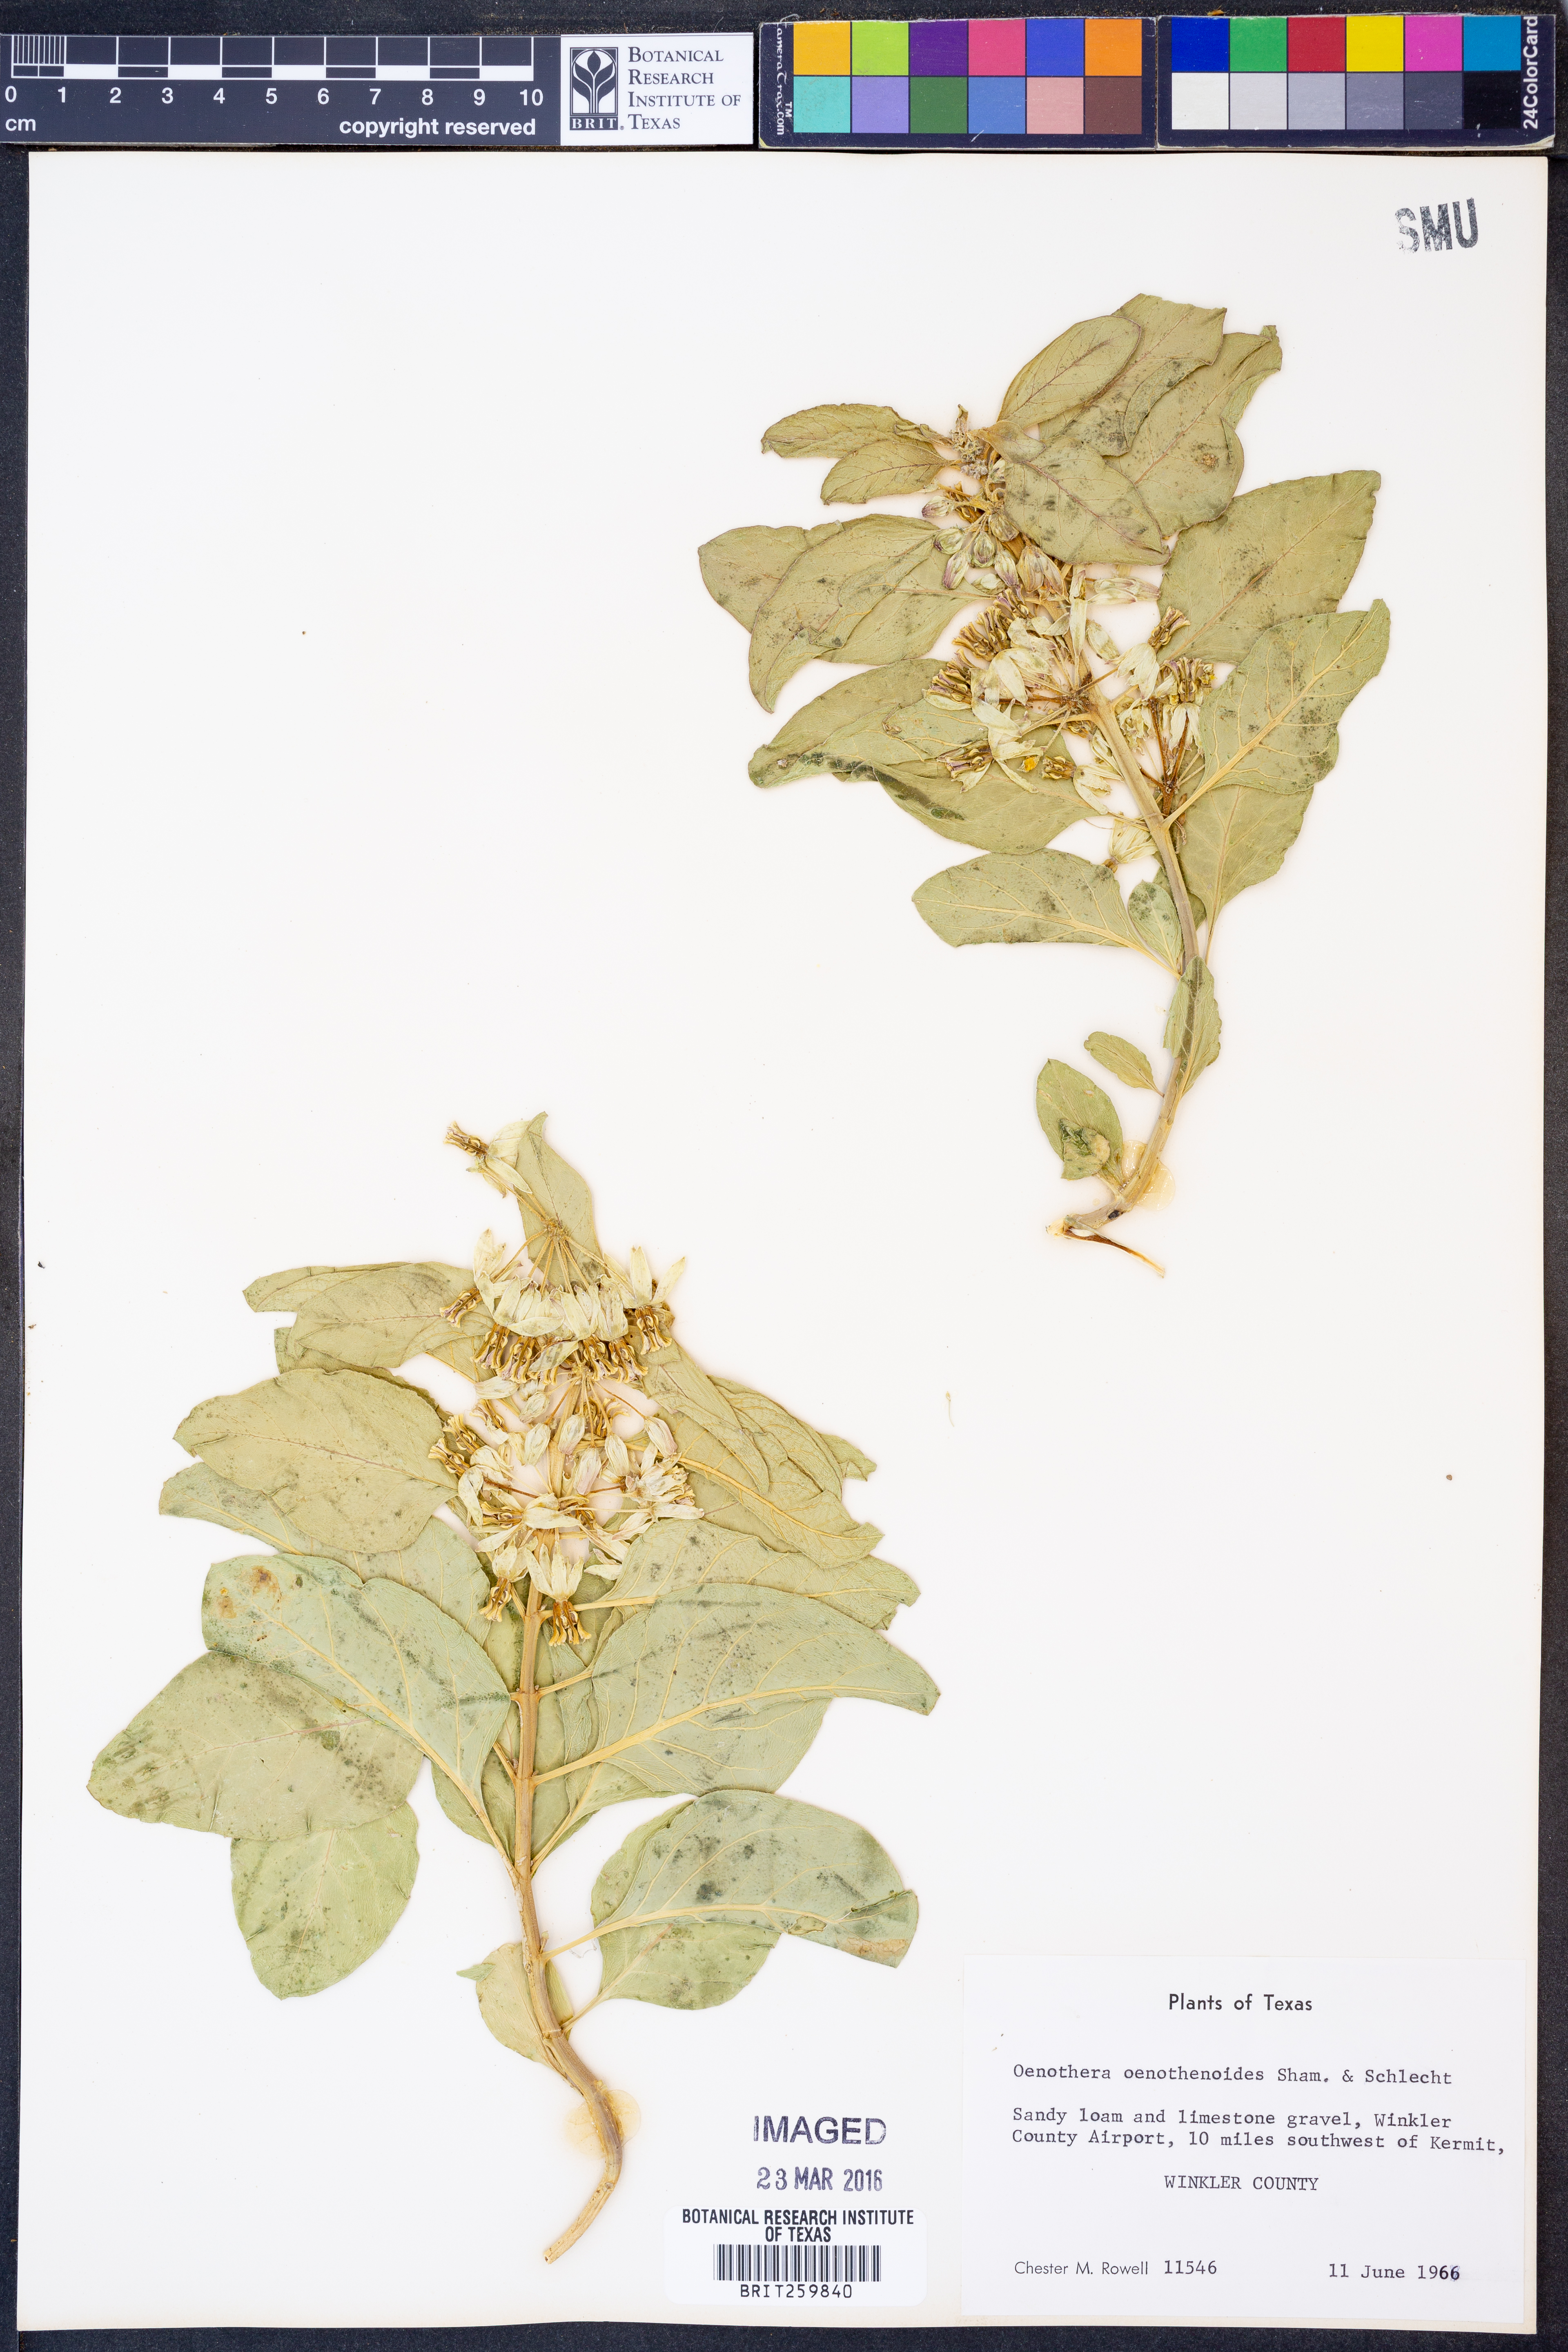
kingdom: Plantae
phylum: Tracheophyta
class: Magnoliopsida
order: Gentianales
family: Apocynaceae
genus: Asclepias
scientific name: Asclepias oenotheroides
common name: Zizotes milkweed
